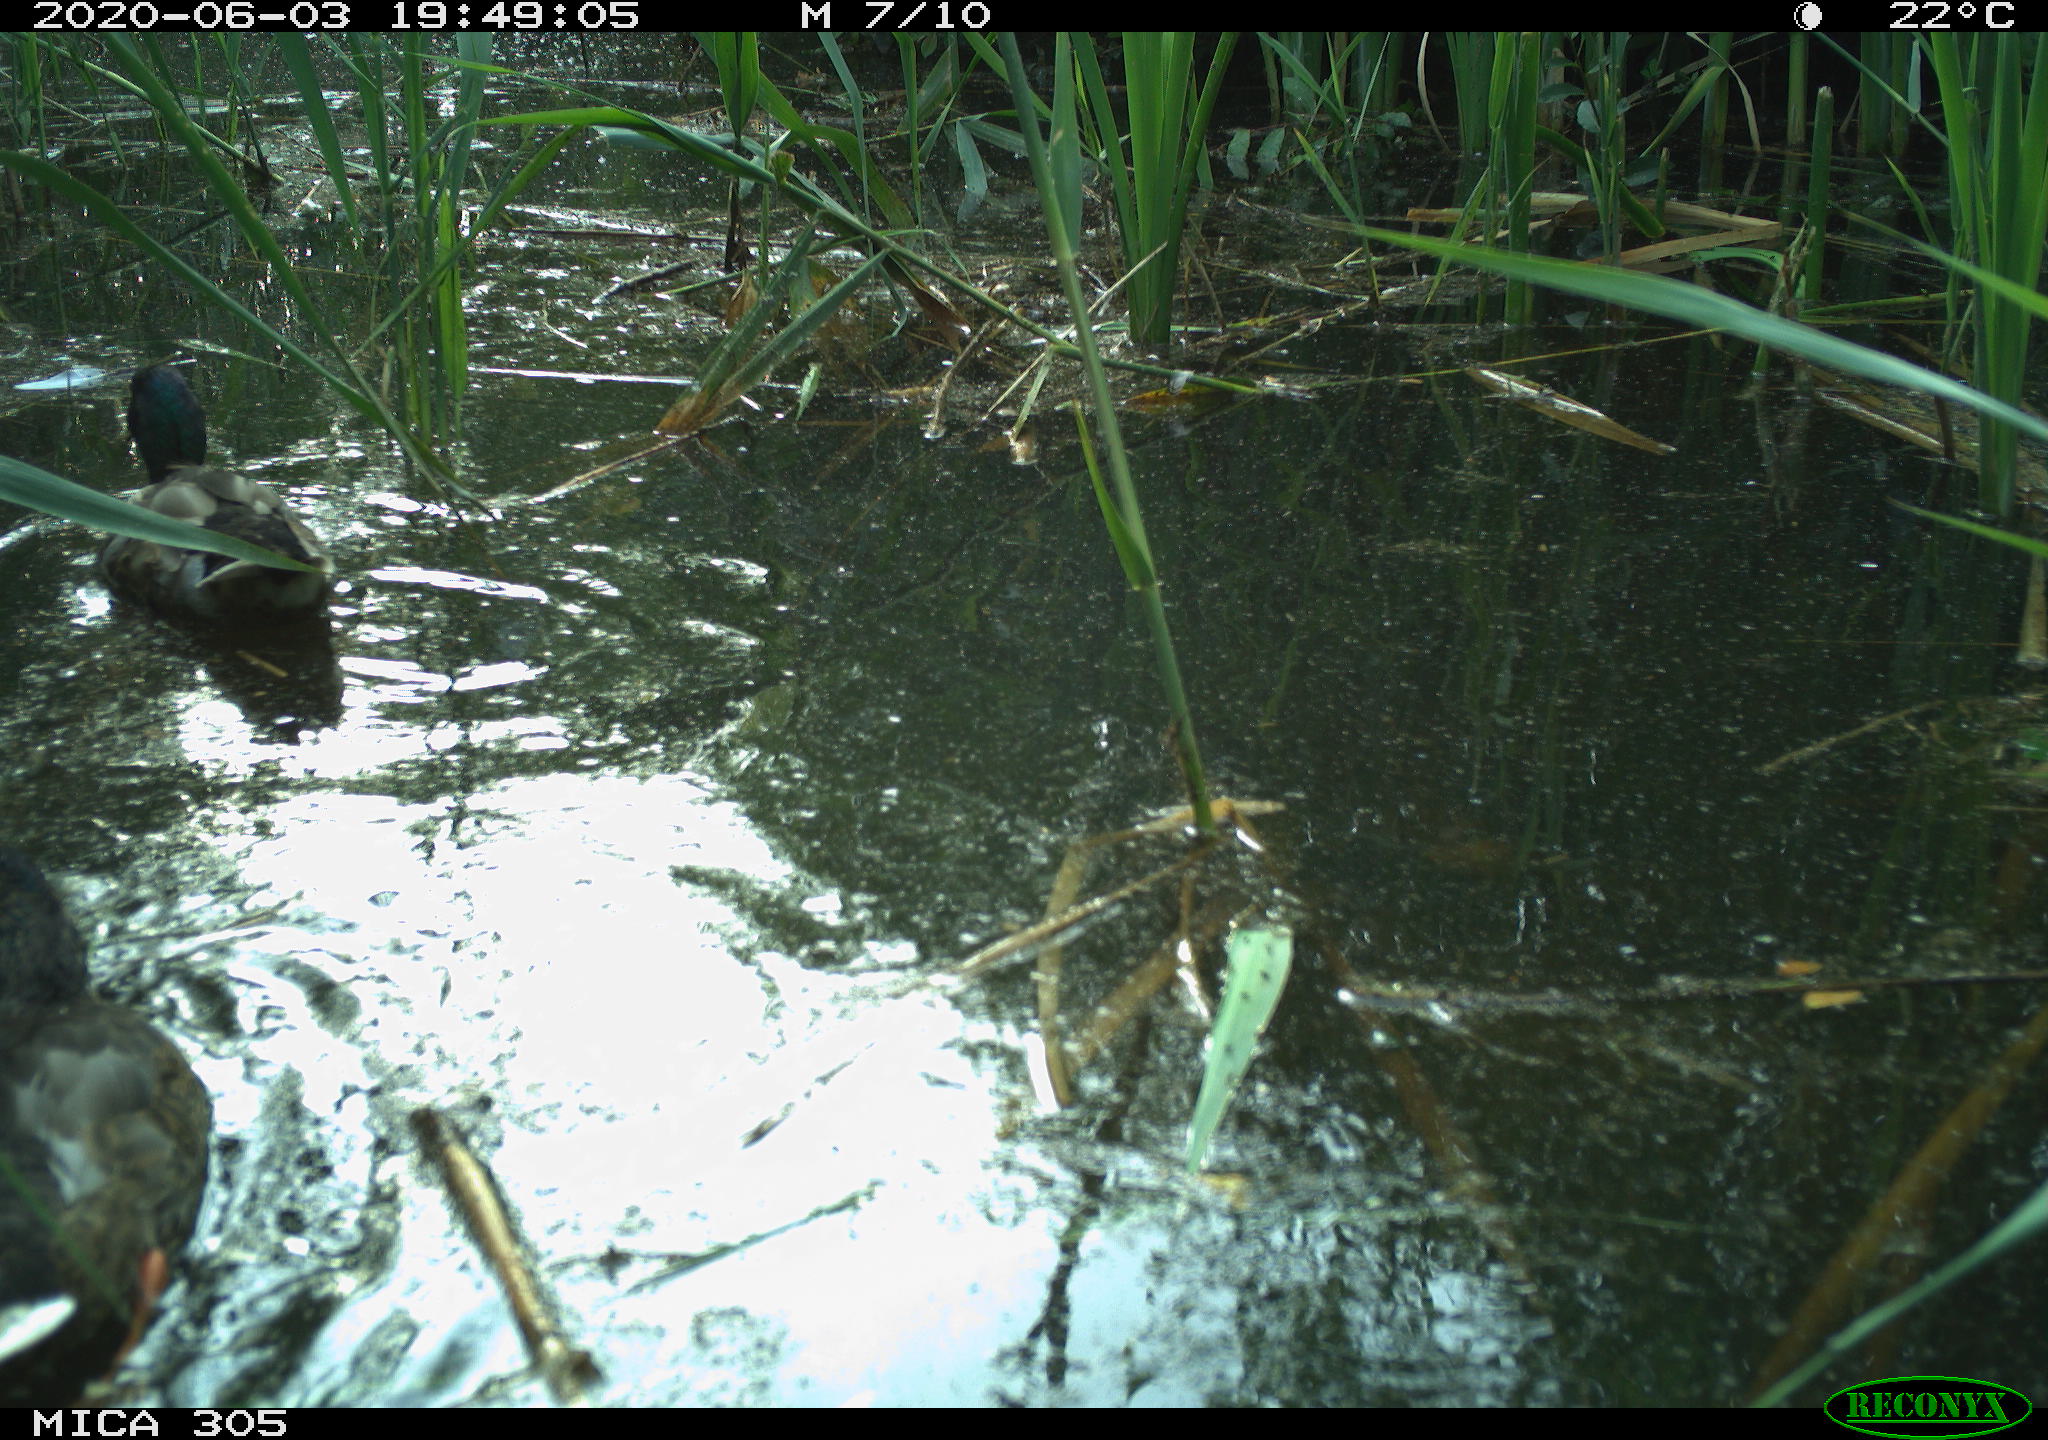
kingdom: Animalia
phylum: Chordata
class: Aves
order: Anseriformes
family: Anatidae
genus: Anas
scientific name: Anas platyrhynchos
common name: Mallard
